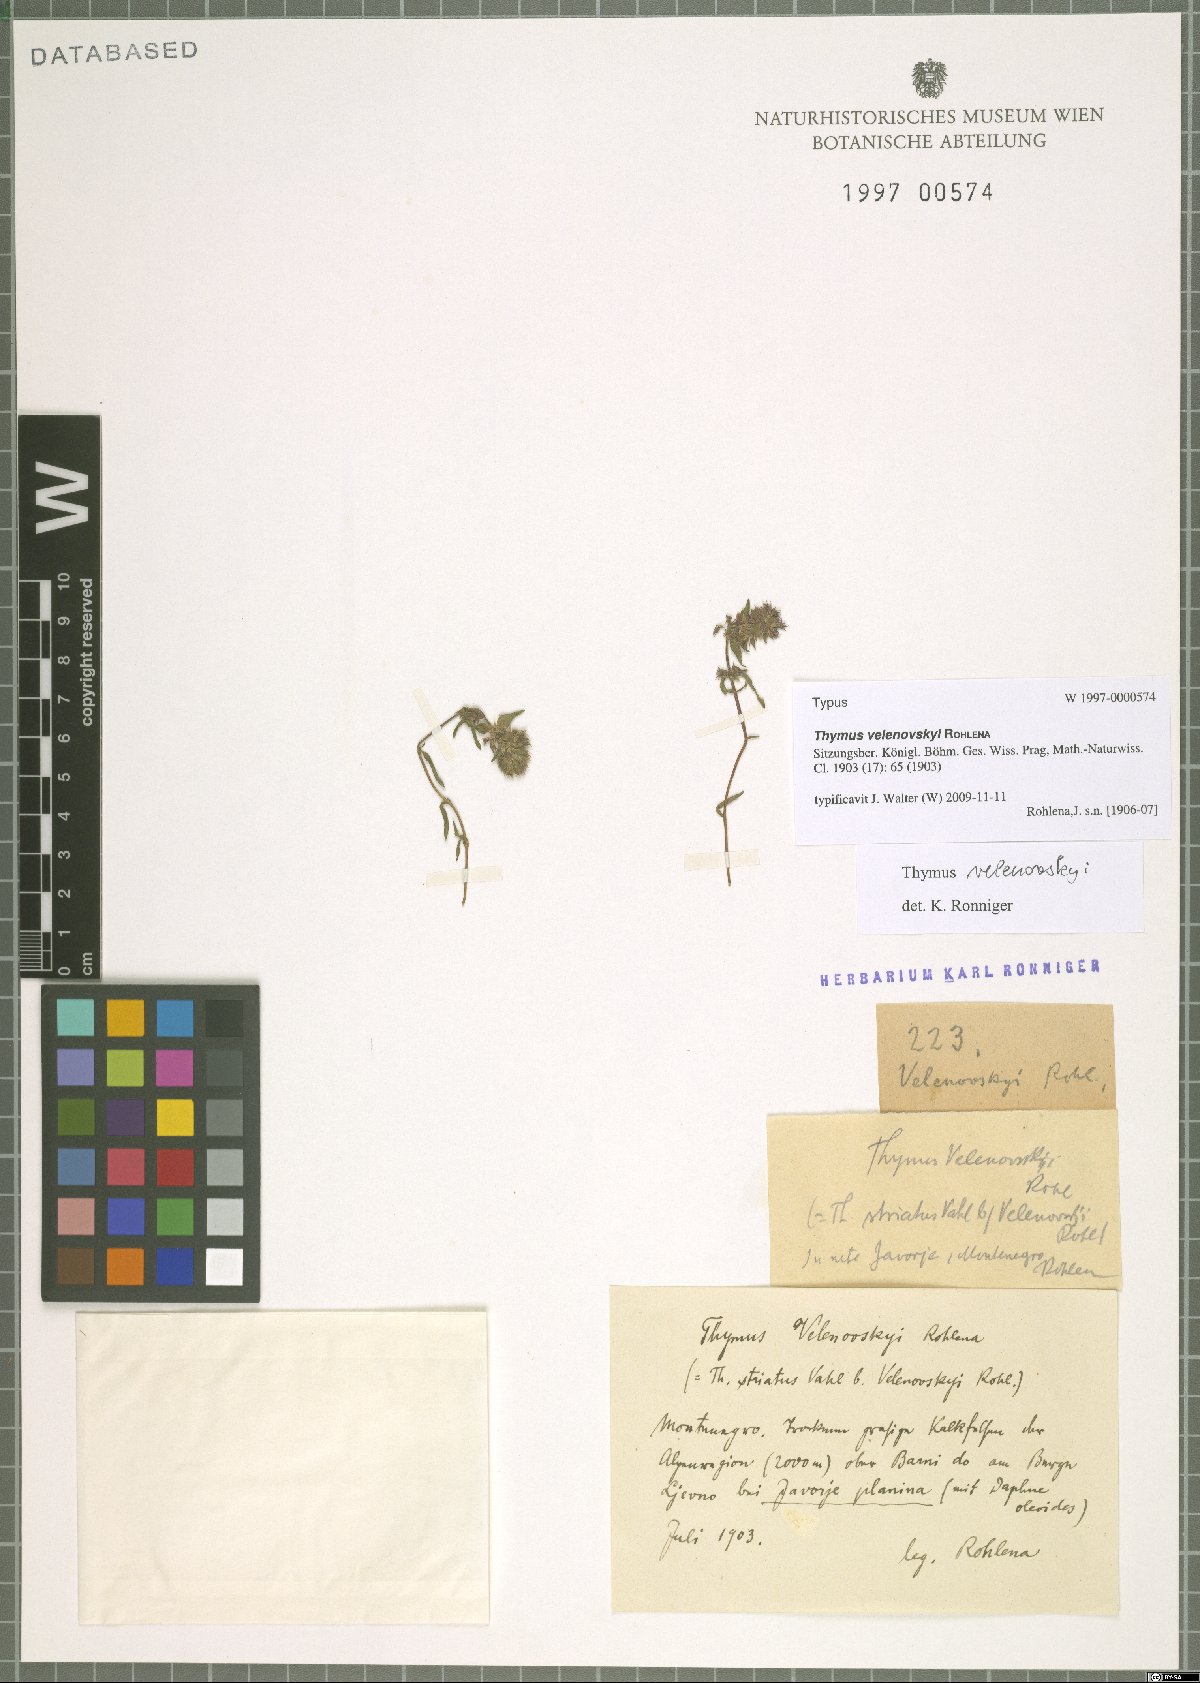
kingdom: Plantae
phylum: Tracheophyta
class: Magnoliopsida
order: Lamiales
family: Lamiaceae
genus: Thymus
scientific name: Thymus velenovskyi
